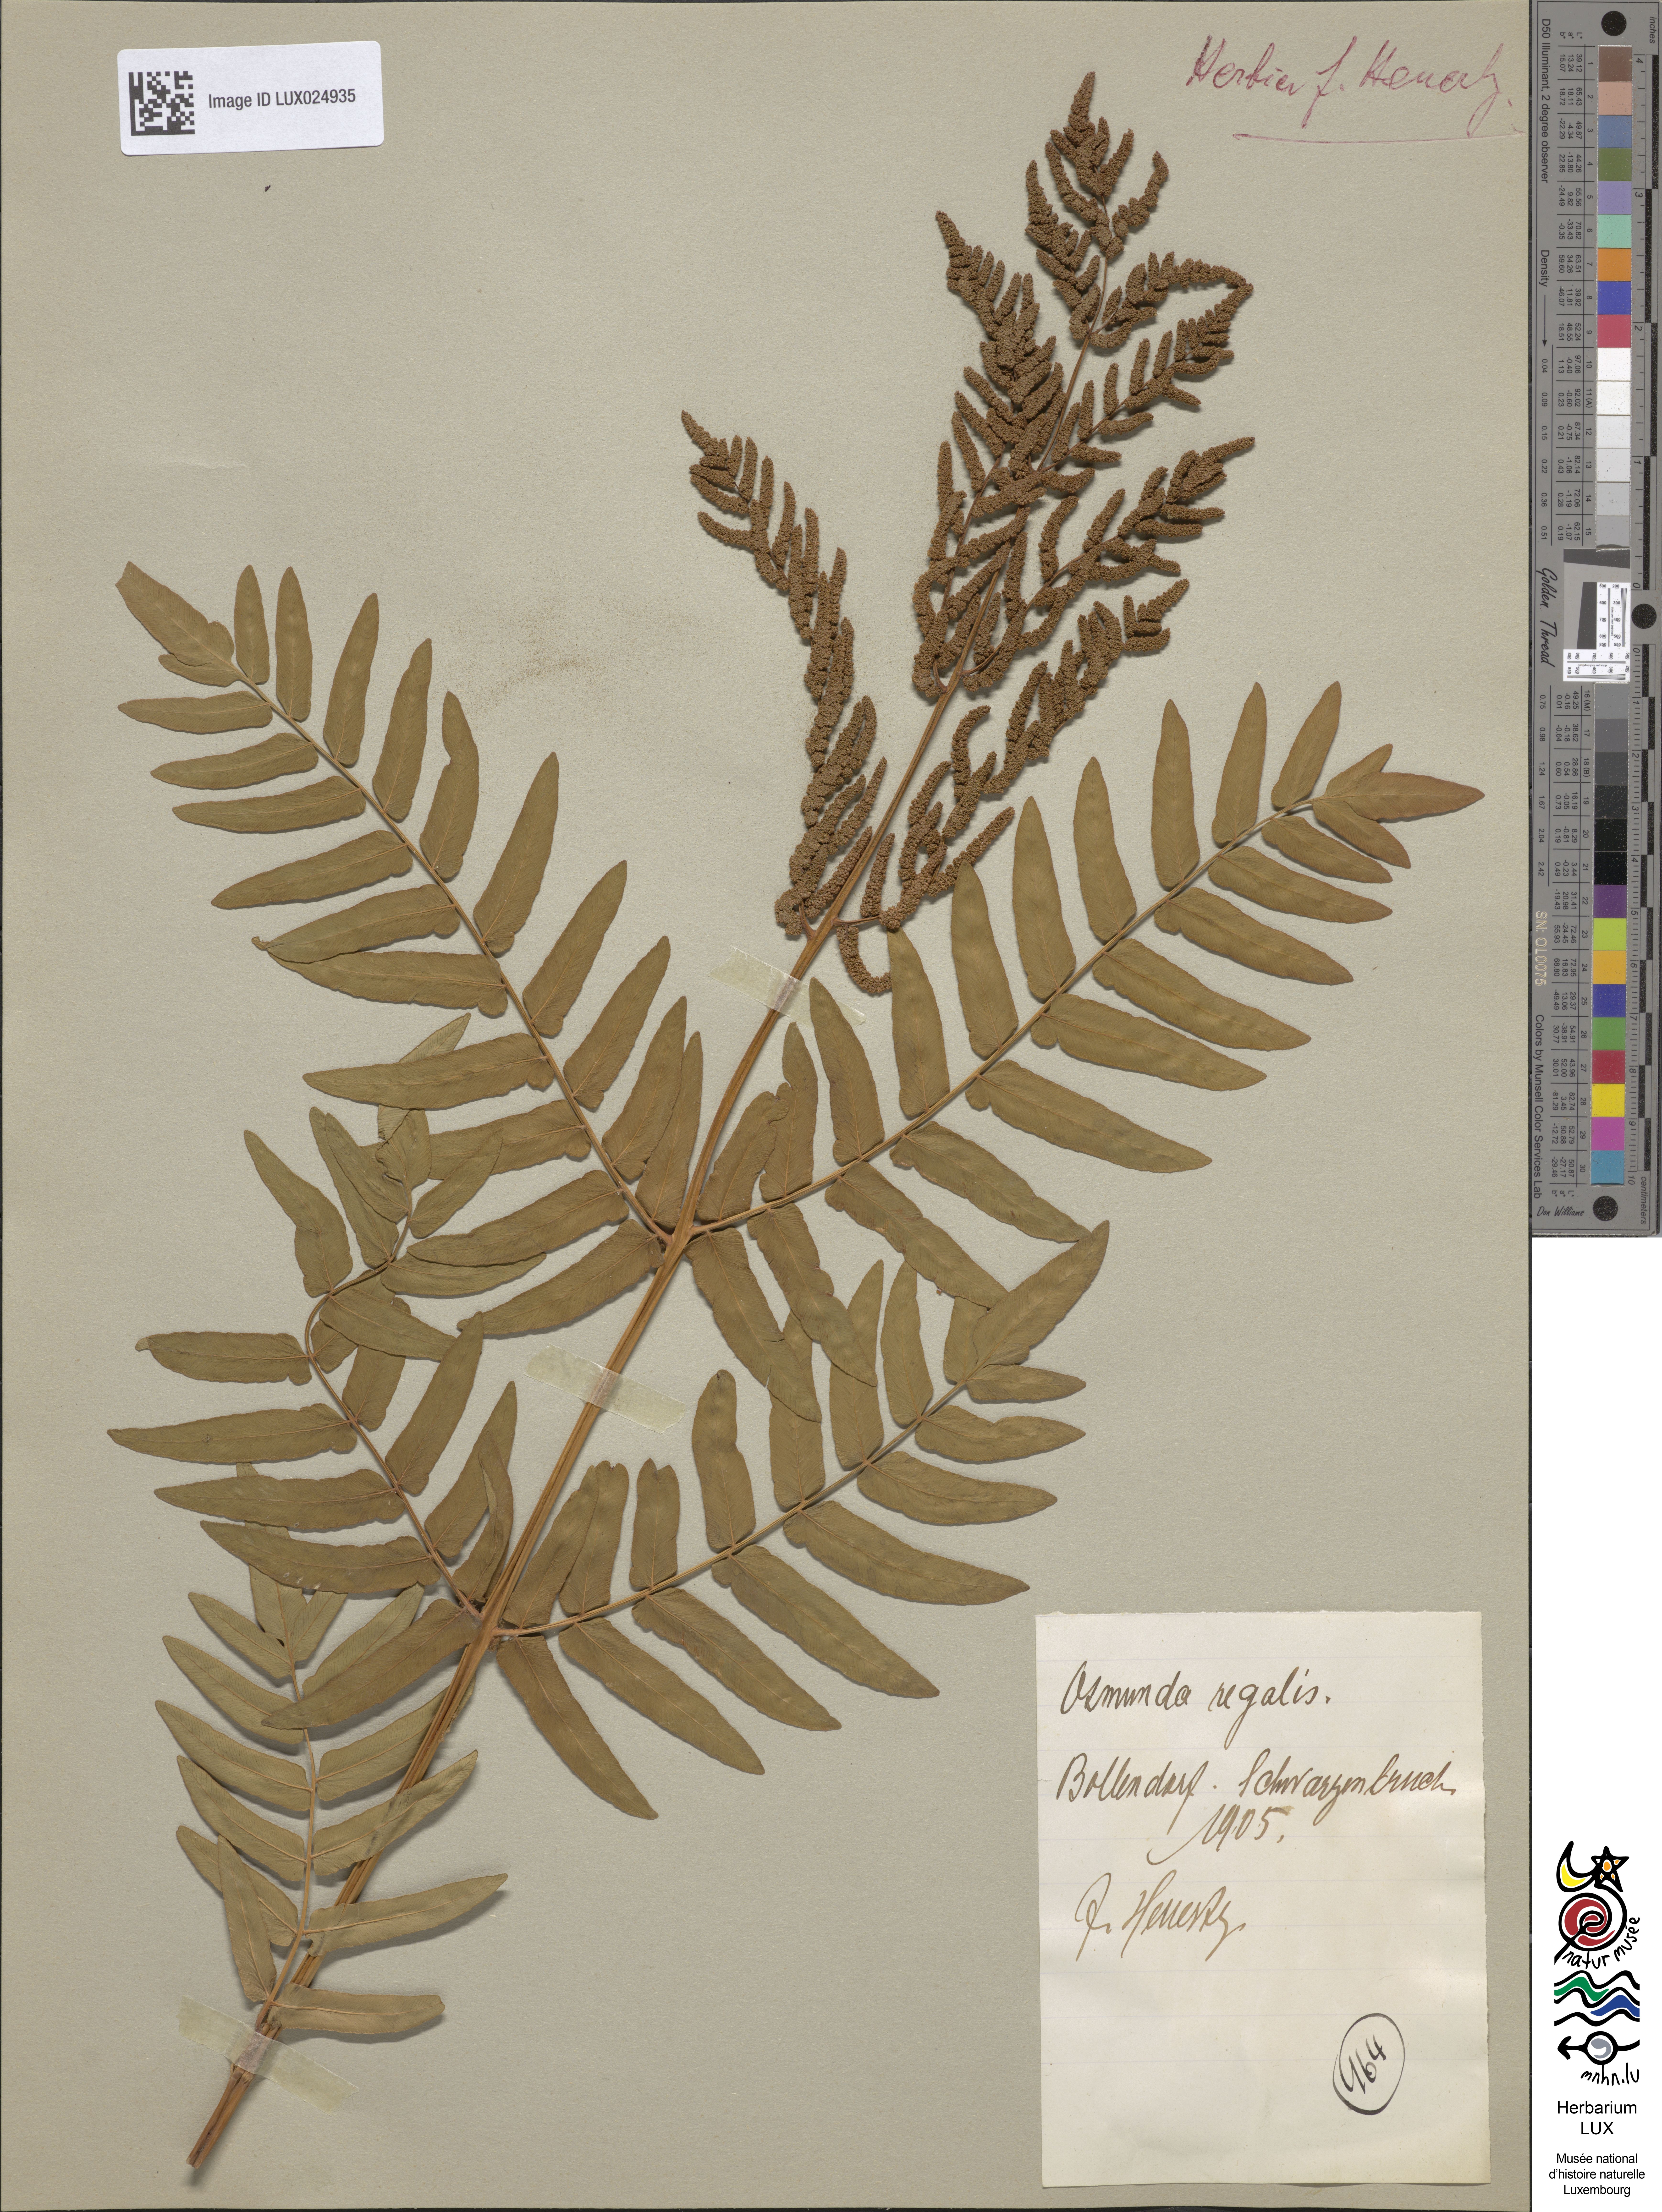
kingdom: Plantae
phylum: Tracheophyta
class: Polypodiopsida
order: Osmundales
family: Osmundaceae
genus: Osmunda
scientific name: Osmunda regalis
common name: Royal fern
